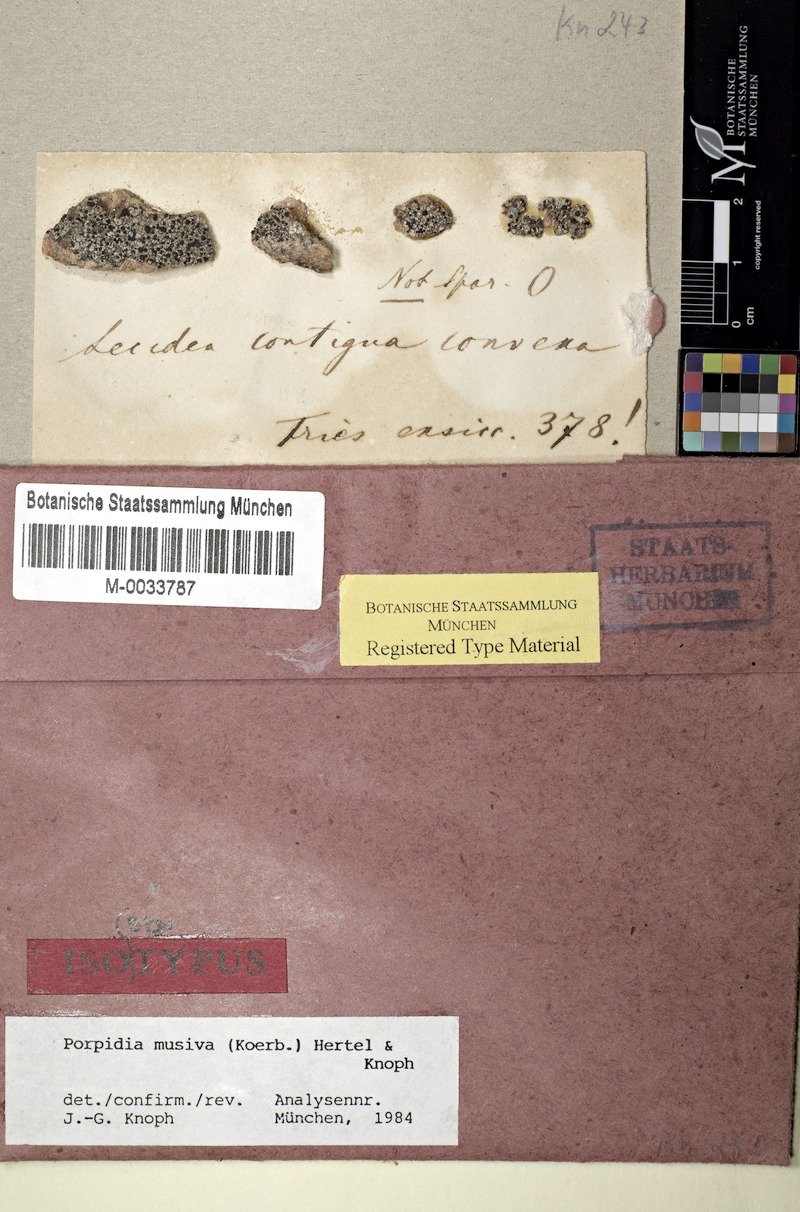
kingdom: Fungi
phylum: Ascomycota
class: Lecanoromycetes
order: Lecideales
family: Lecideaceae
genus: Porpidia
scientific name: Porpidia cinereoatra
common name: Dark gray boulder lichen
